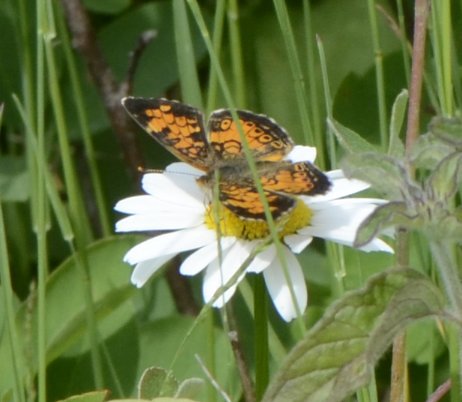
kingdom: Animalia
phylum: Arthropoda
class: Insecta
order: Lepidoptera
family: Nymphalidae
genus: Phyciodes
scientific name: Phyciodes tharos
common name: Northern Crescent
